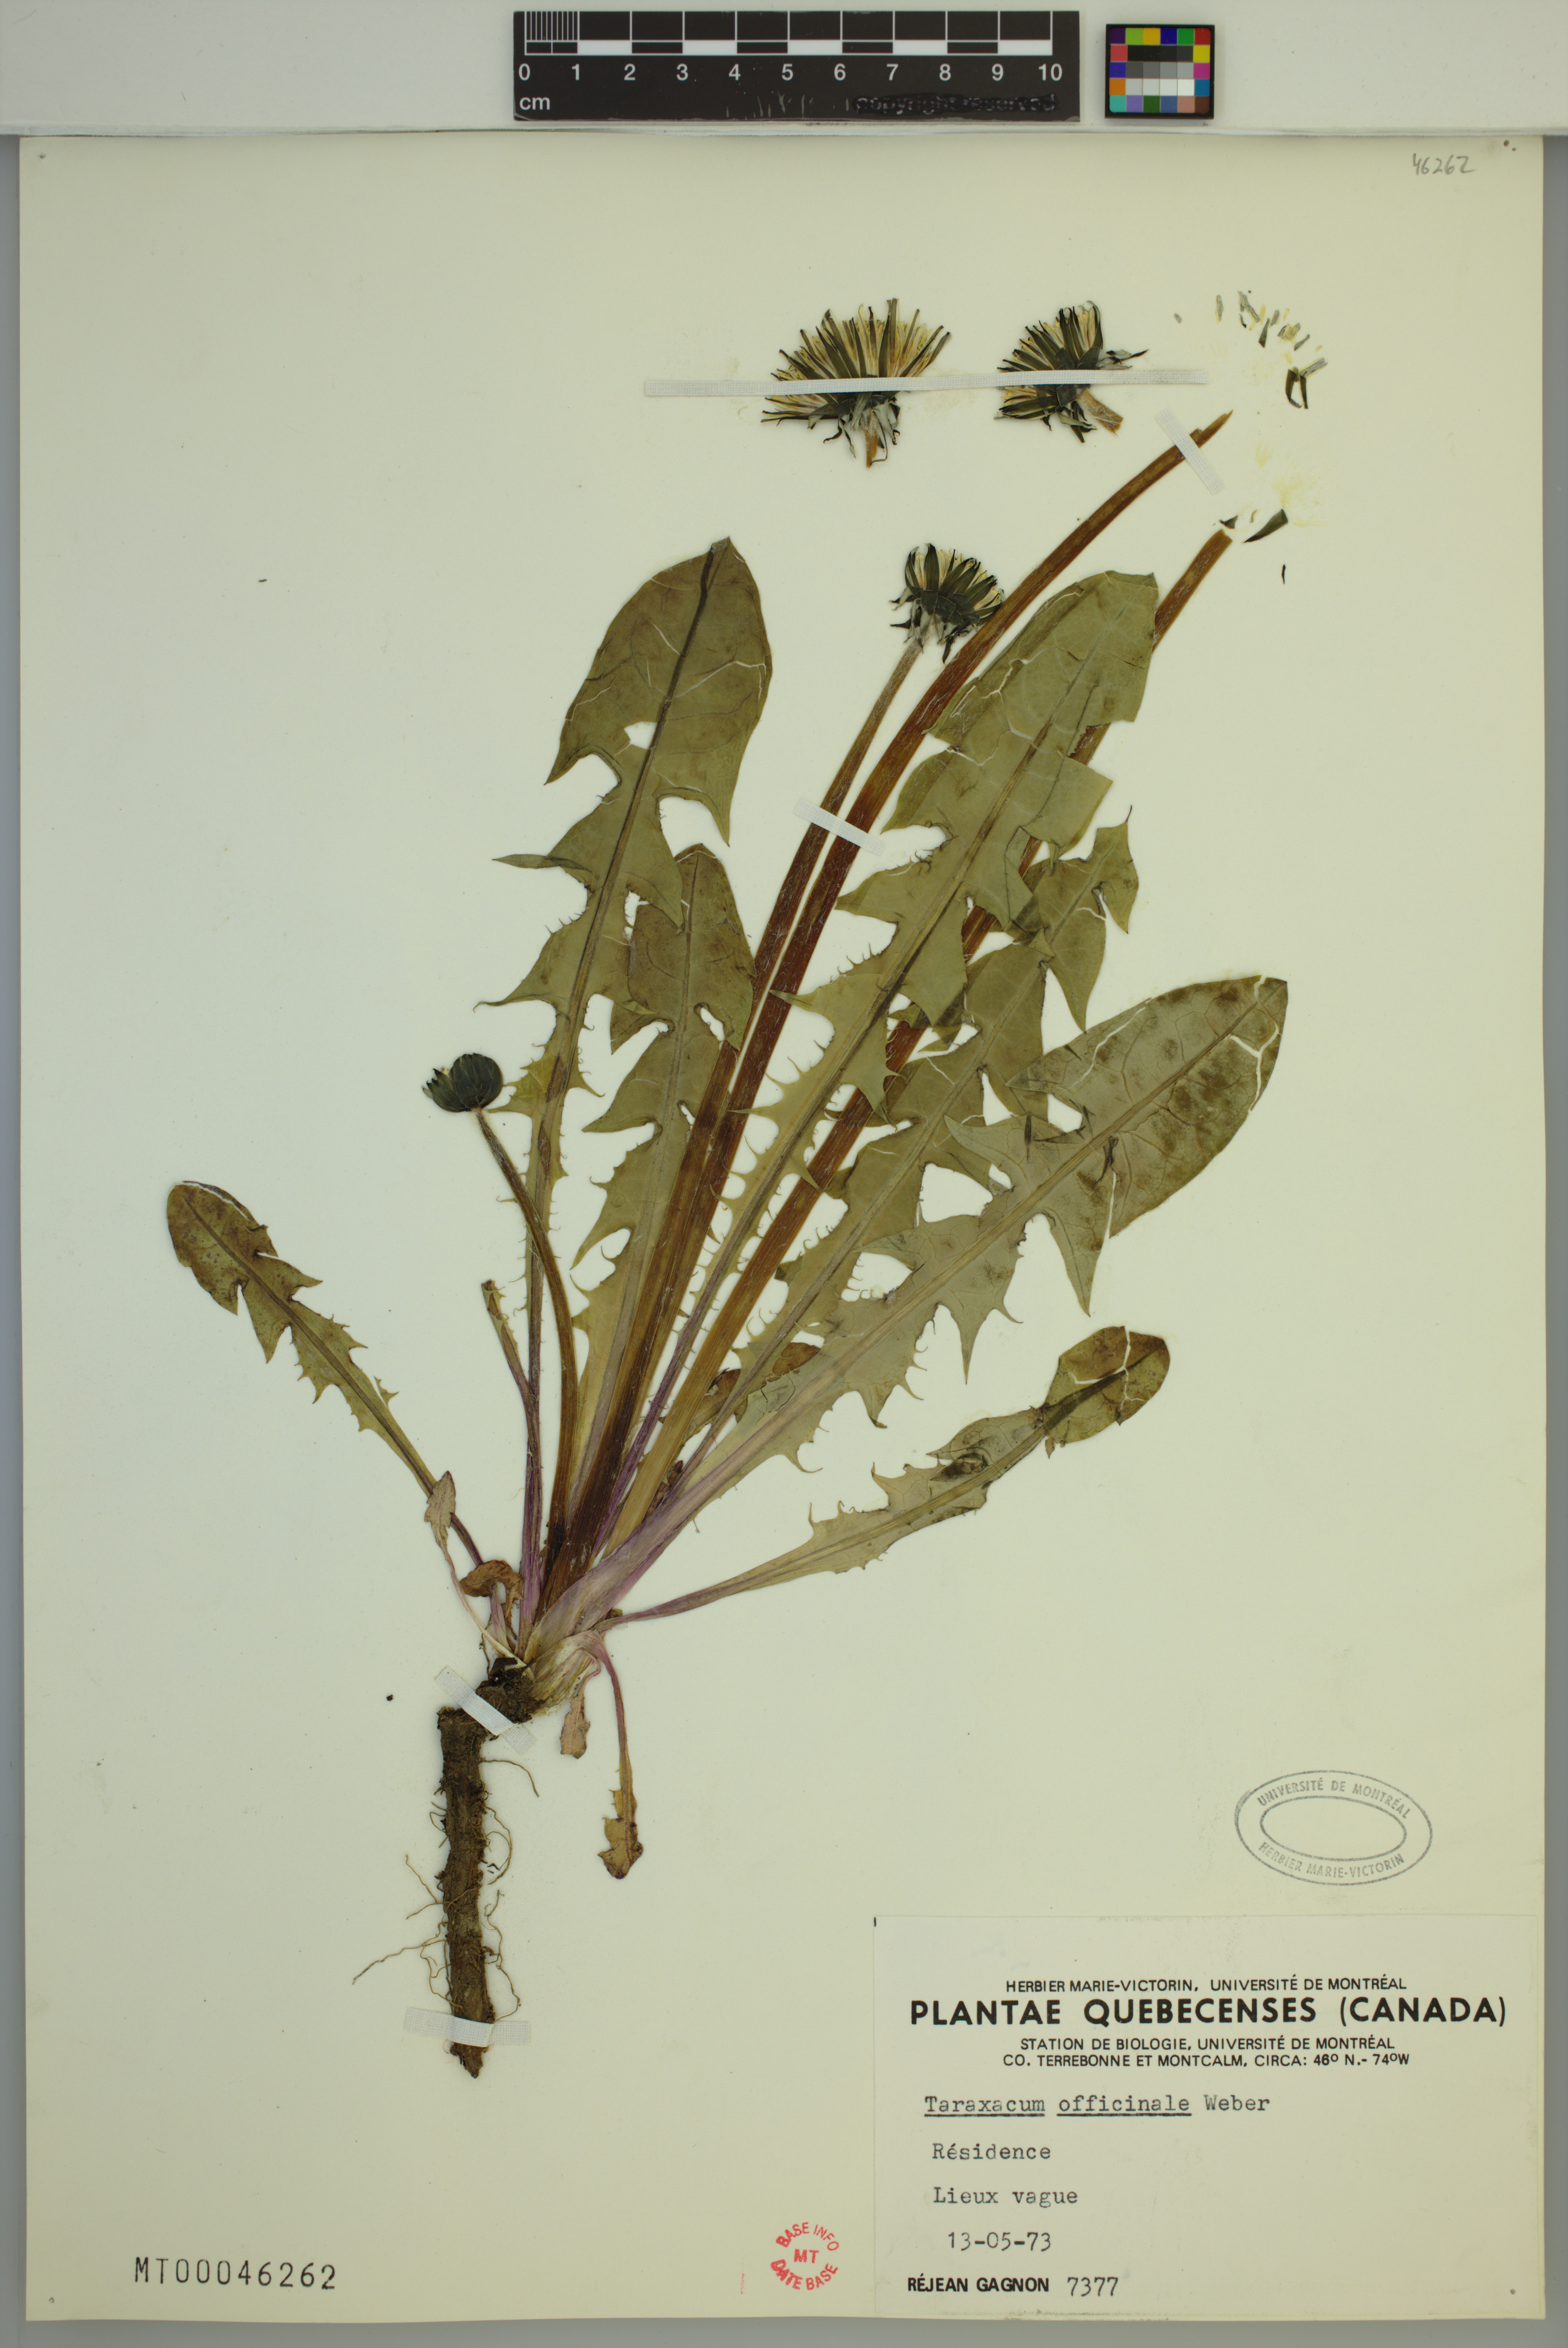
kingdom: Plantae
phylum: Tracheophyta
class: Magnoliopsida
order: Asterales
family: Asteraceae
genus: Taraxacum
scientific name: Taraxacum officinale
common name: Common dandelion
